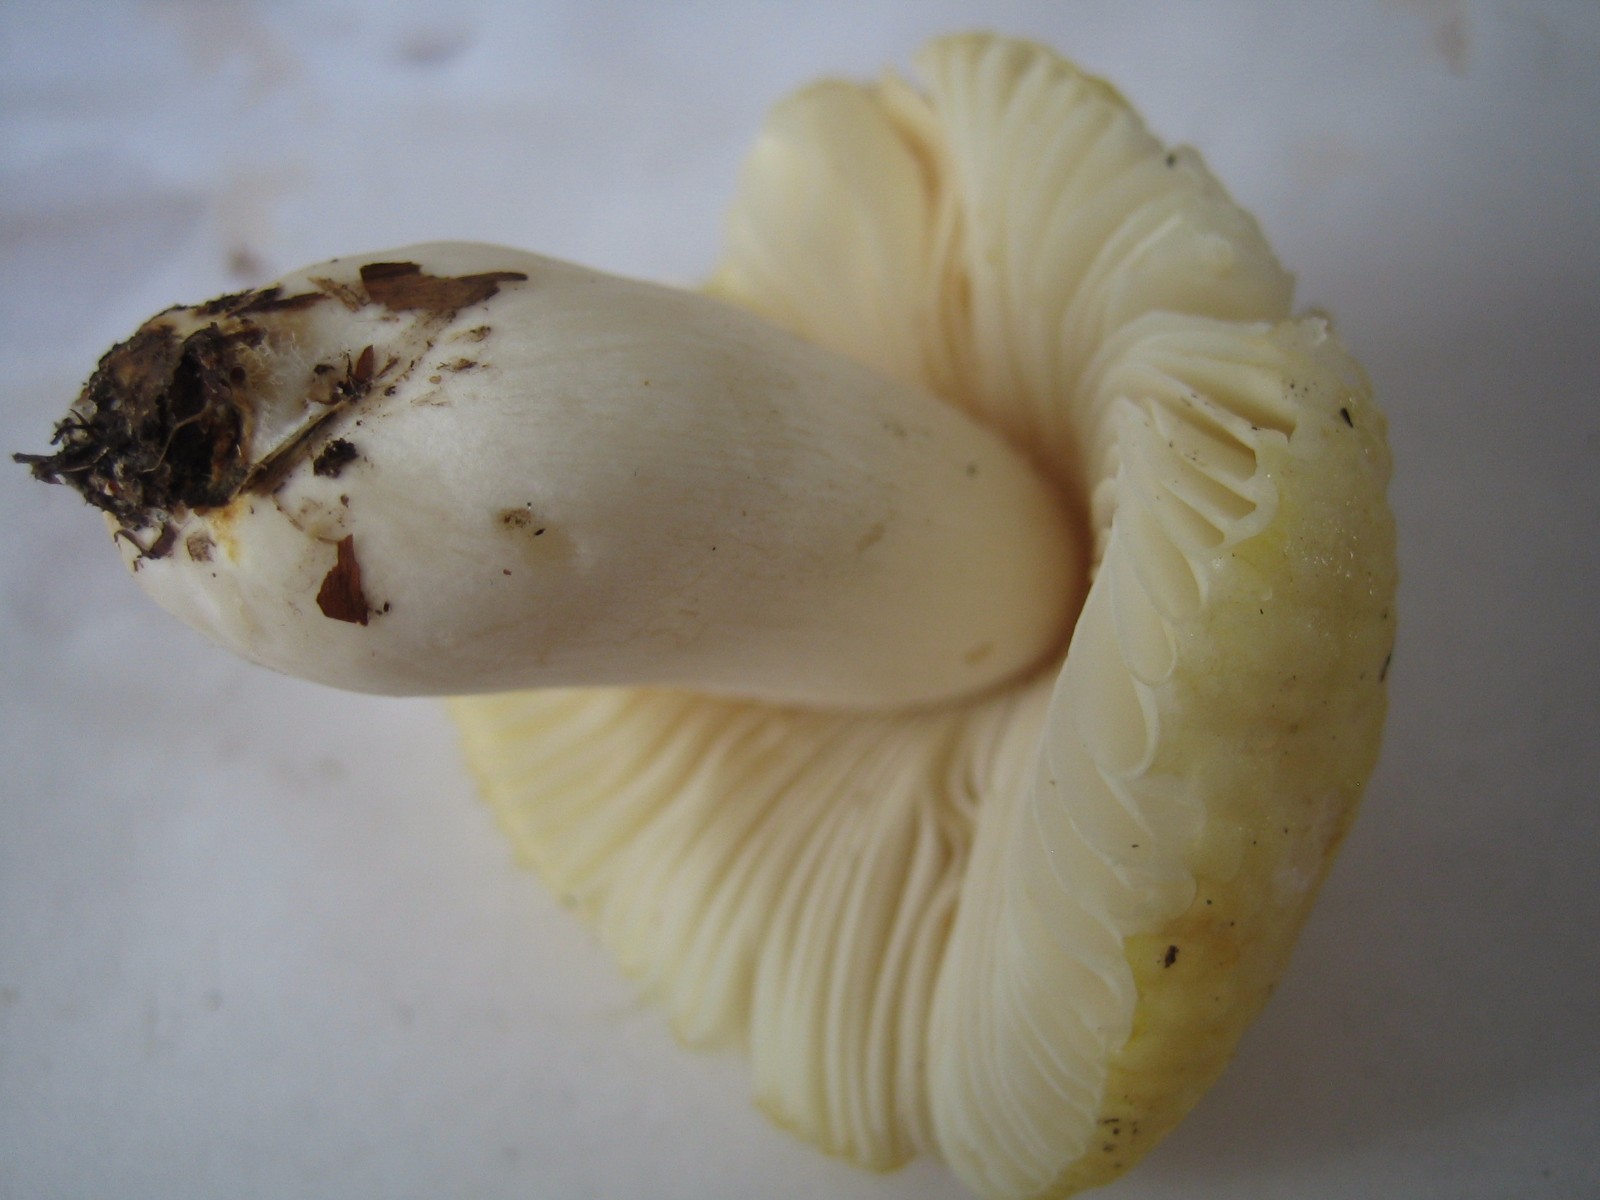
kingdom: Fungi
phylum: Basidiomycota
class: Agaricomycetes
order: Russulales
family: Russulaceae
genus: Russula
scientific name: Russula solaris
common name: sol-skørhat
